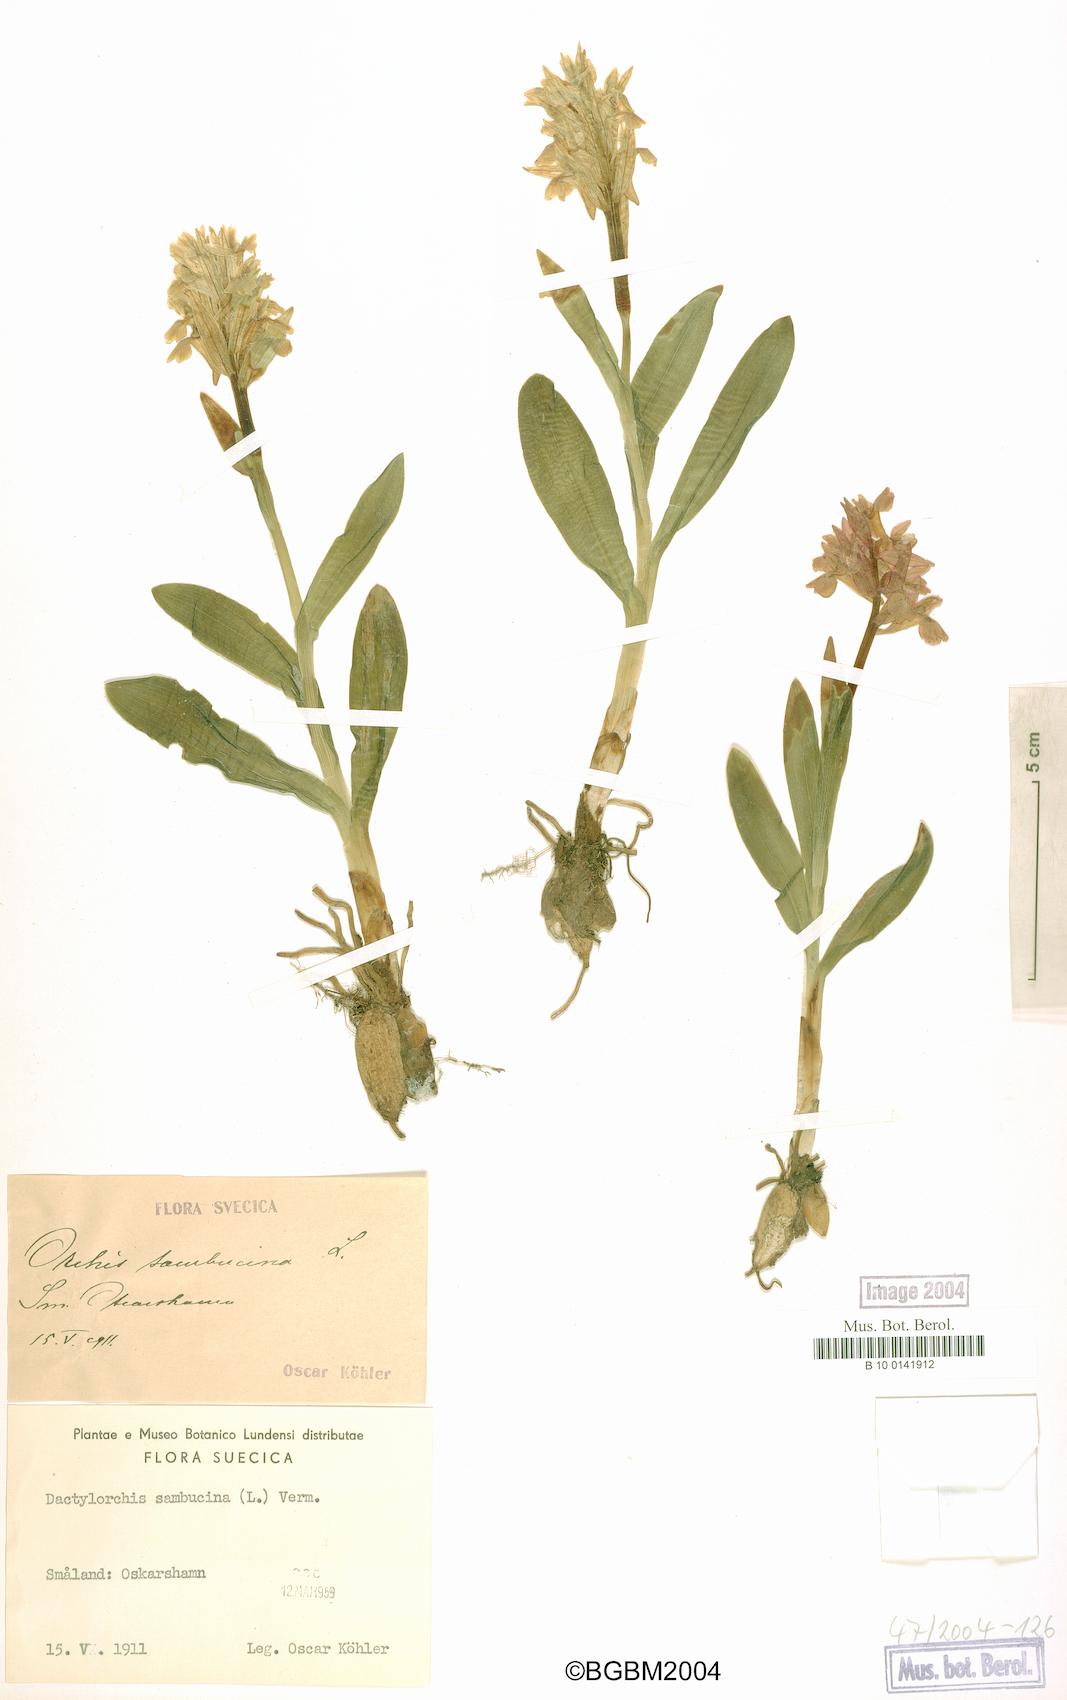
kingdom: Plantae
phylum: Tracheophyta
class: Liliopsida
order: Asparagales
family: Orchidaceae
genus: Dactylorhiza
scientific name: Dactylorhiza sambucina
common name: Elder-flowered orchid
